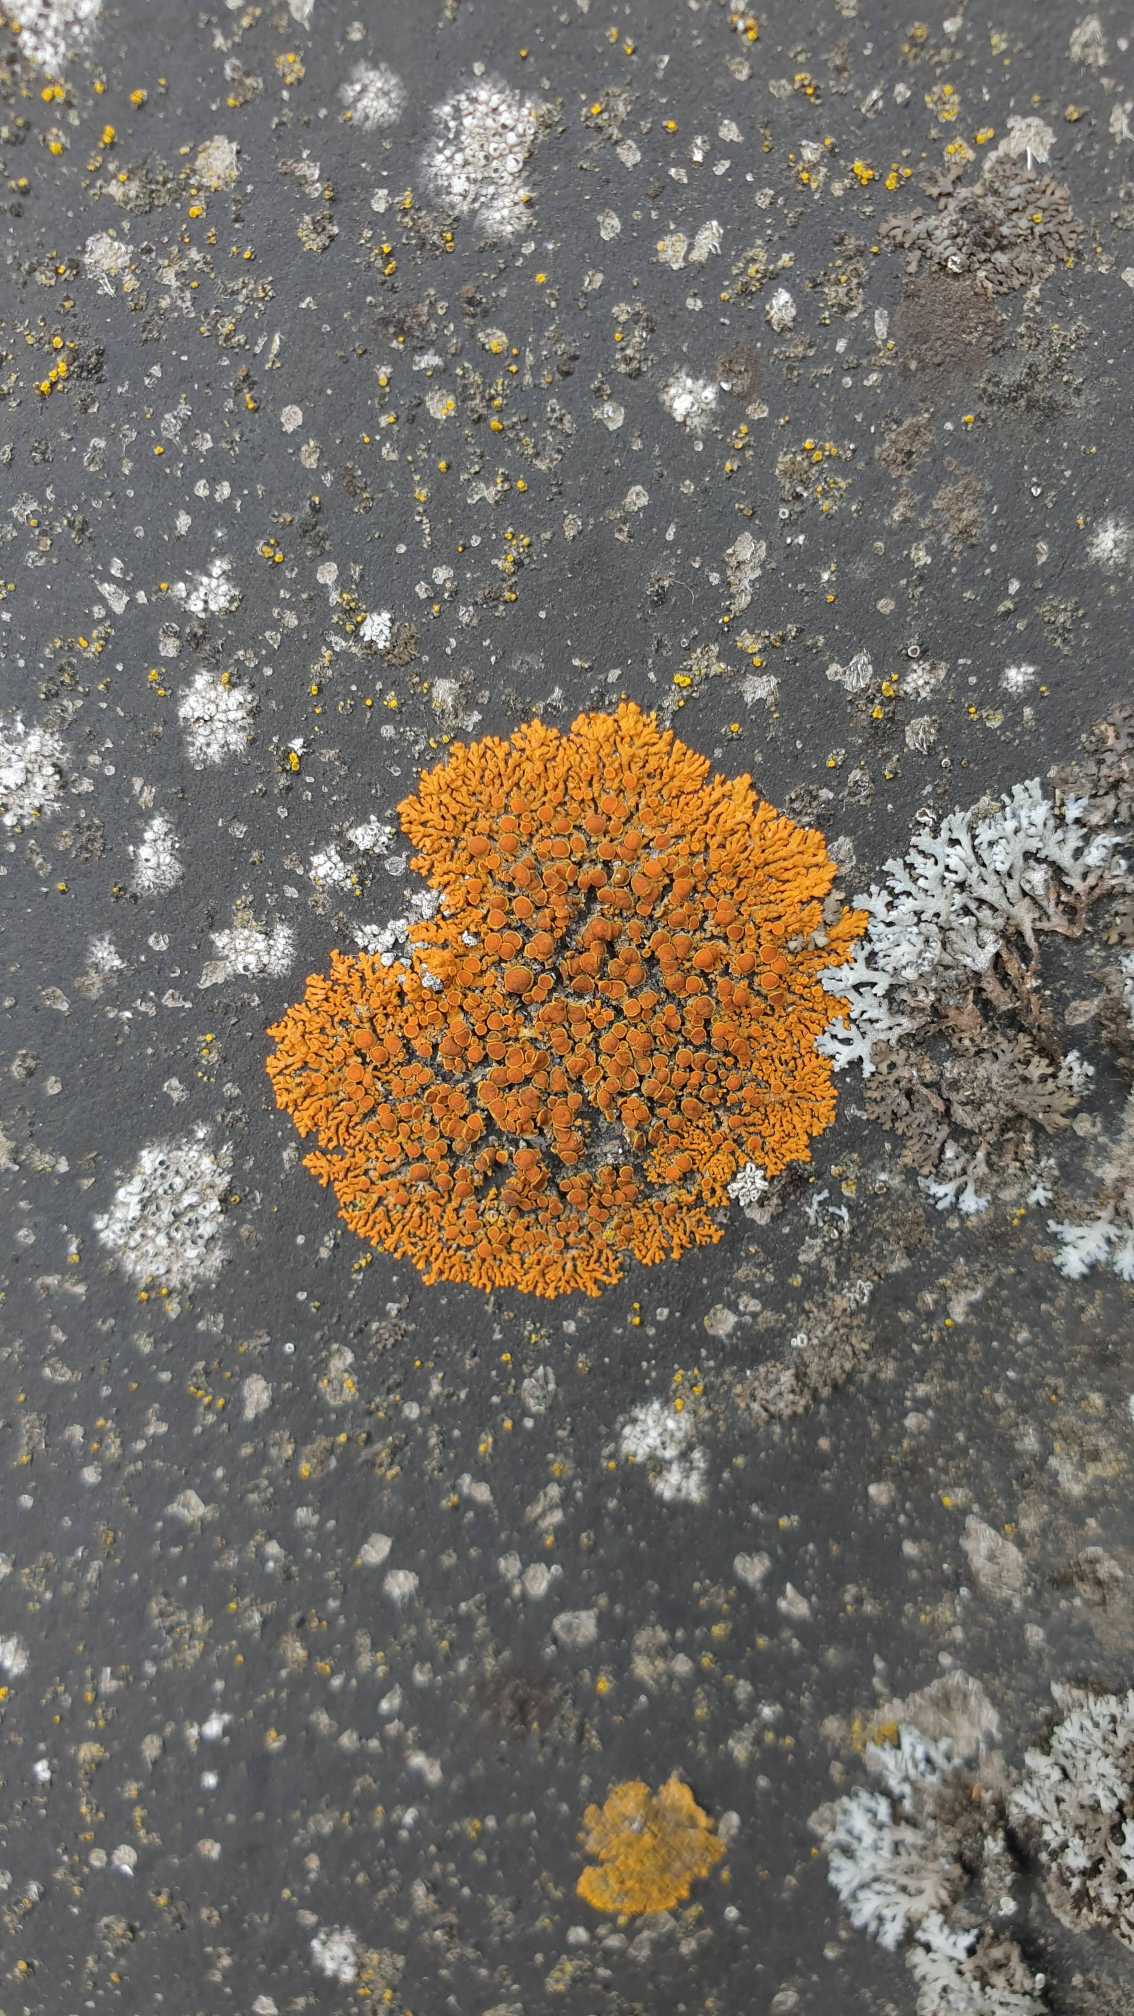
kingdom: Fungi
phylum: Ascomycota
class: Lecanoromycetes
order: Teloschistales
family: Teloschistaceae
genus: Xanthoria
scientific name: Xanthoria elegans
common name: Fjeld-væggelav
